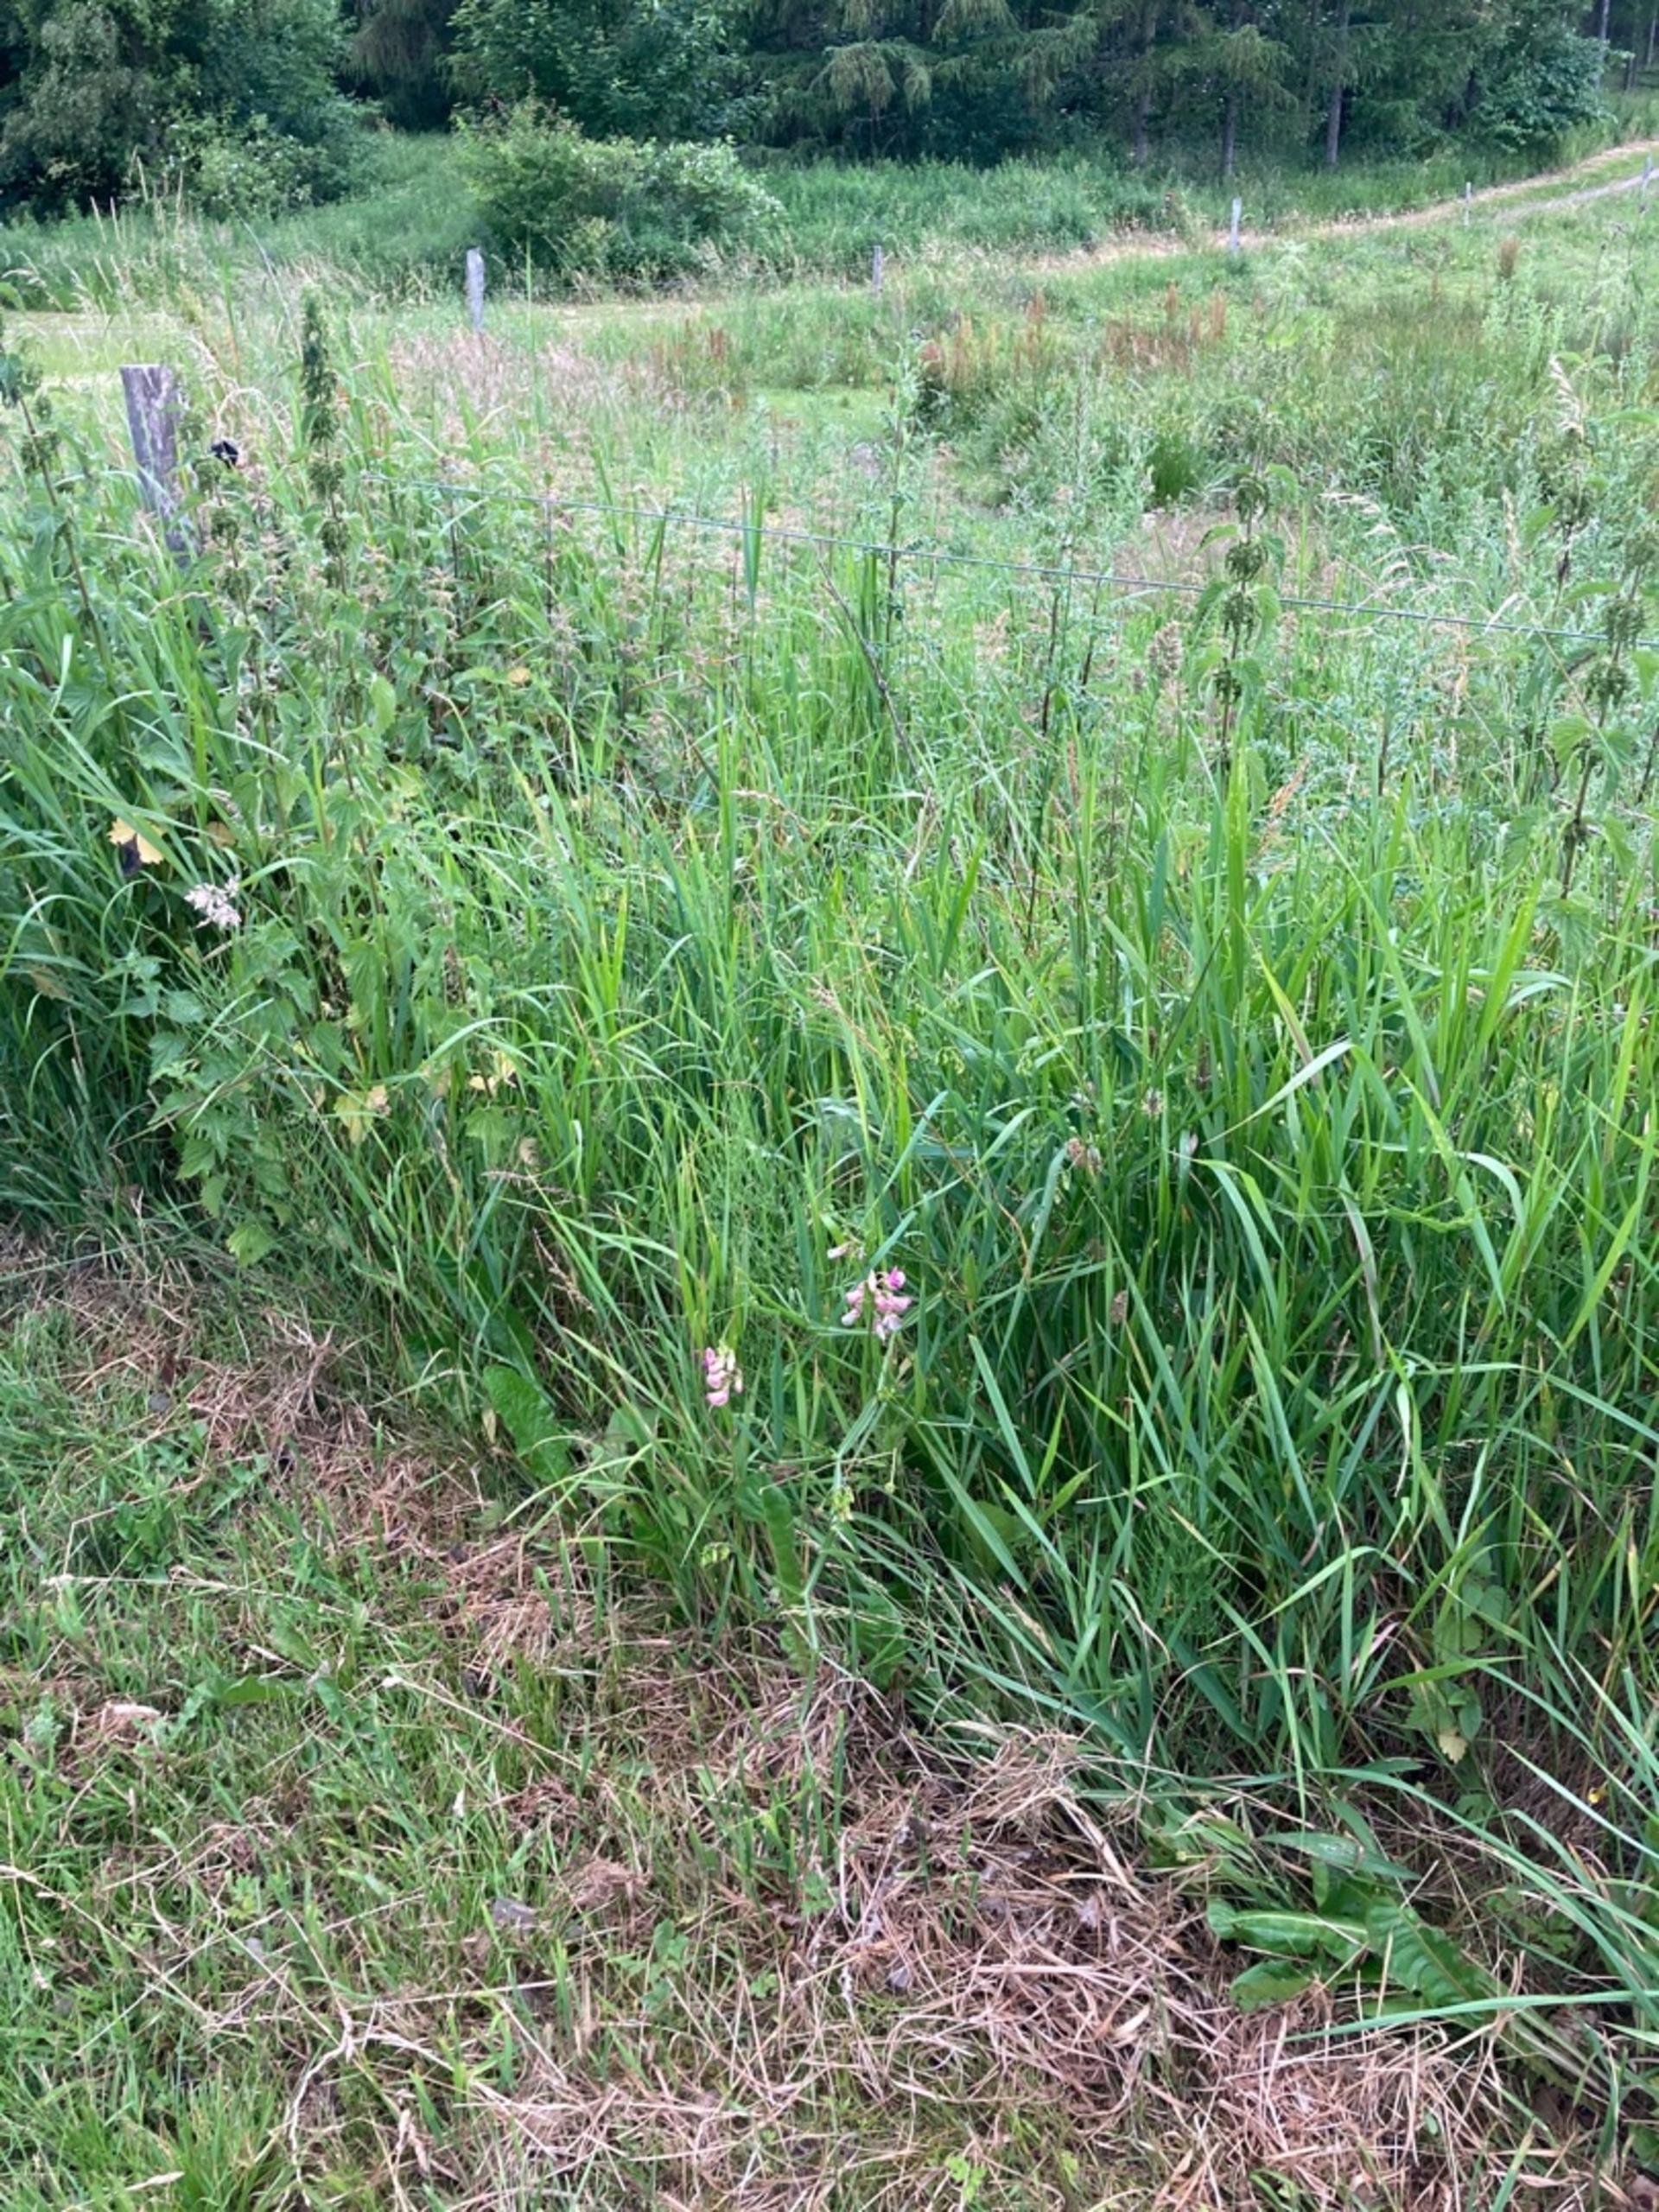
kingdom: Plantae
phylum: Tracheophyta
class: Magnoliopsida
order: Fabales
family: Fabaceae
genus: Lathyrus
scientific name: Lathyrus sylvestris
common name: Skov-fladbælg
